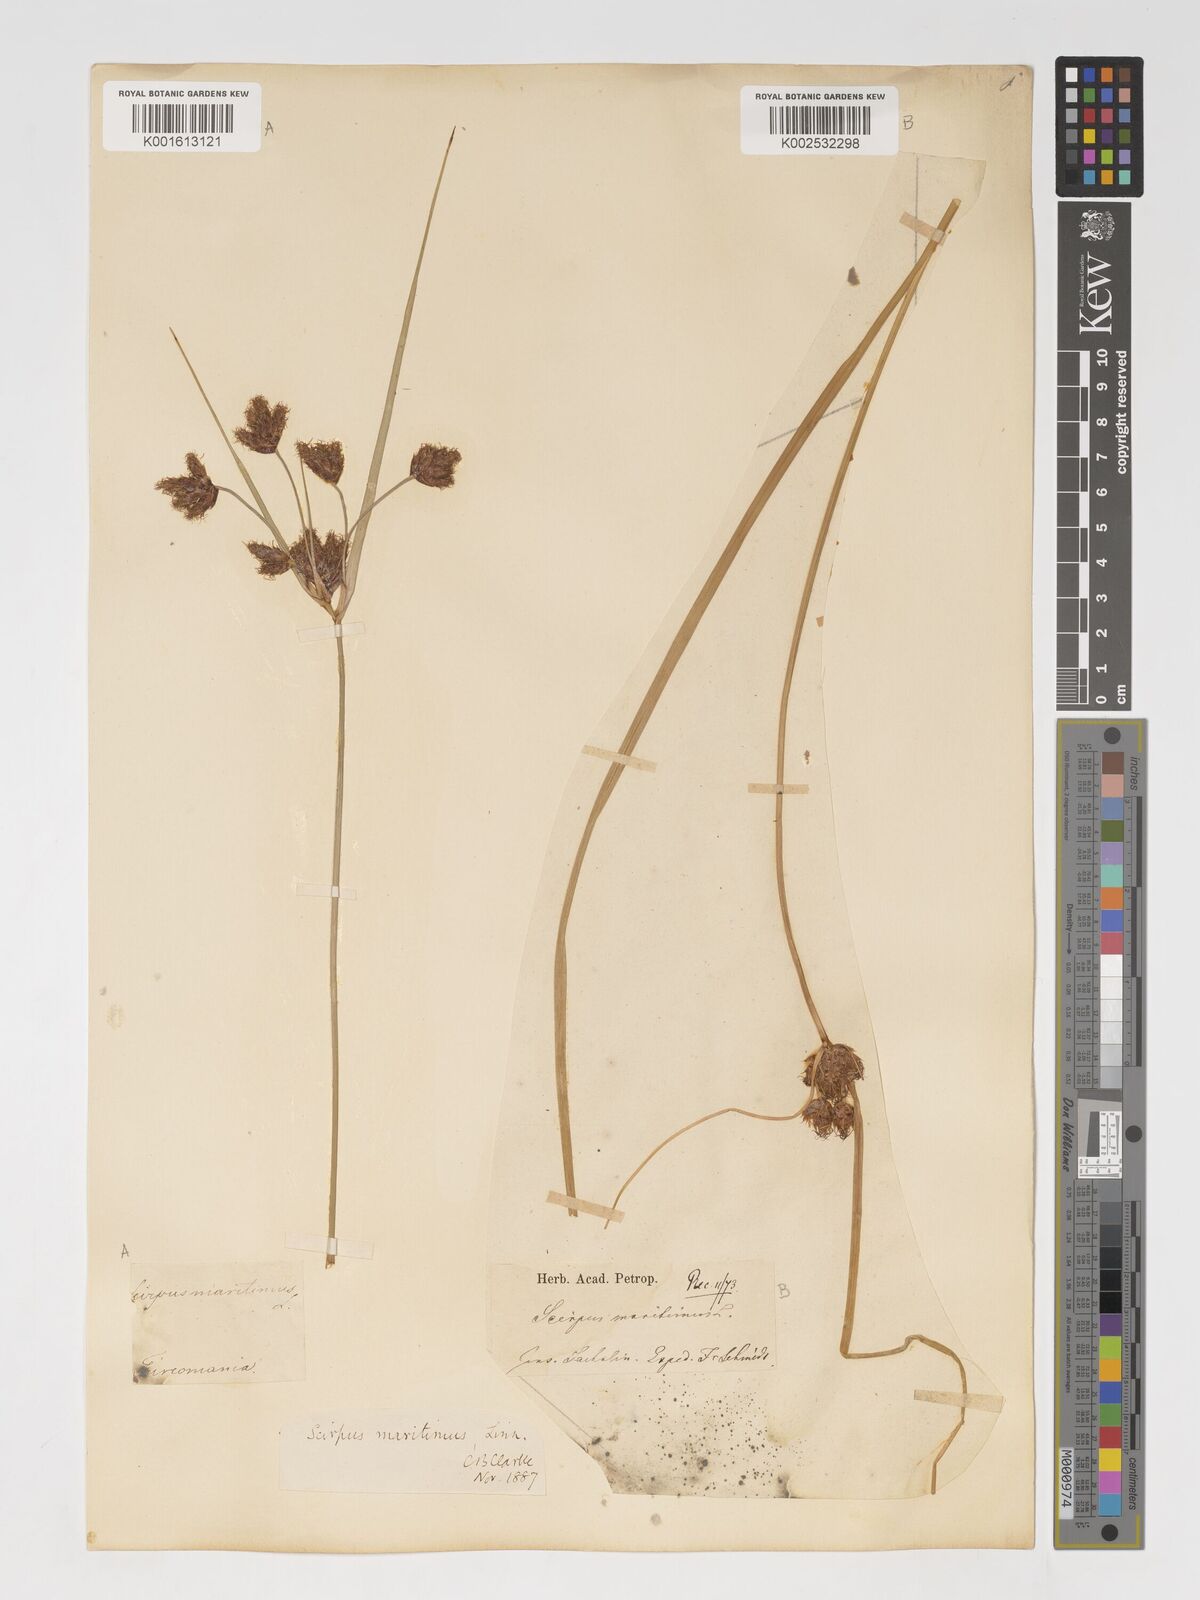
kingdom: Plantae
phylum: Tracheophyta
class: Liliopsida
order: Poales
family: Cyperaceae
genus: Bolboschoenus
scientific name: Bolboschoenus maritimus
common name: Sea club-rush
